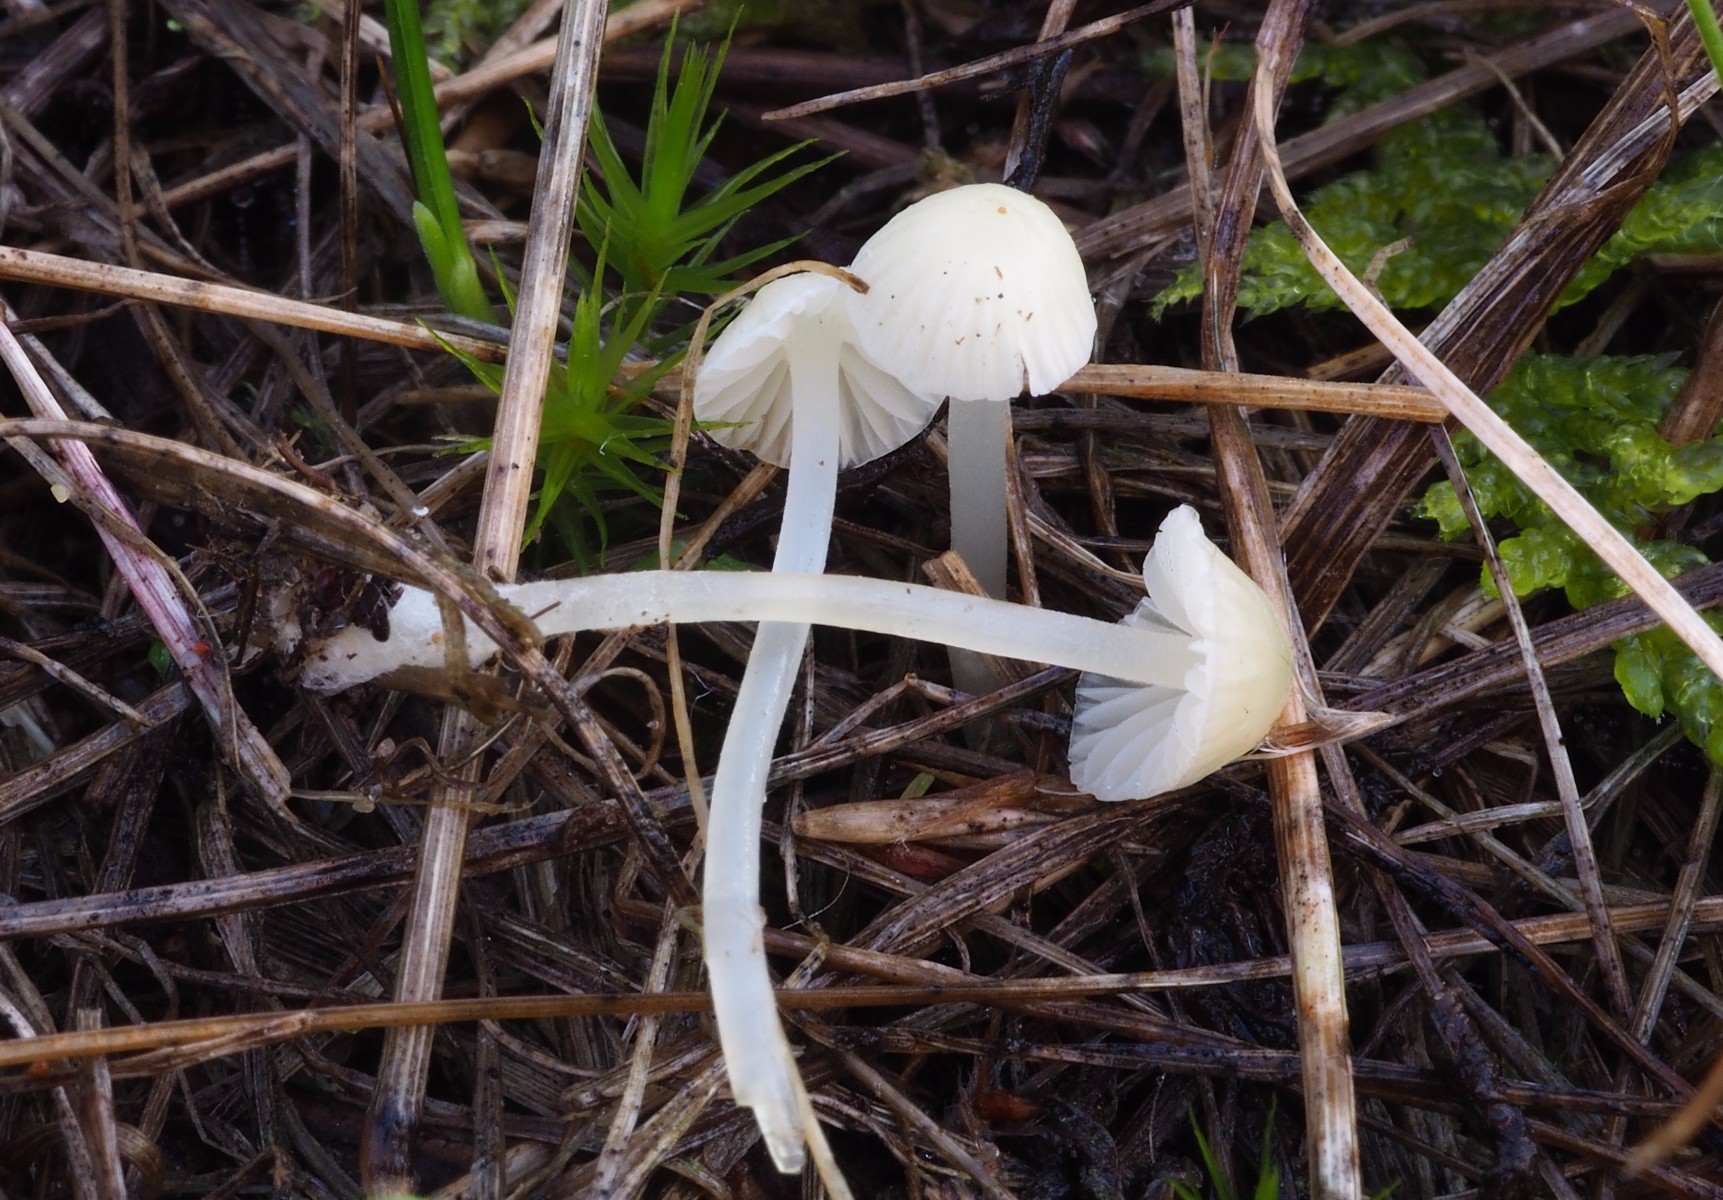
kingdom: Fungi
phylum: Basidiomycota
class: Agaricomycetes
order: Agaricales
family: Tricholomataceae
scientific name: Tricholomataceae
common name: ridderhatfamilien
